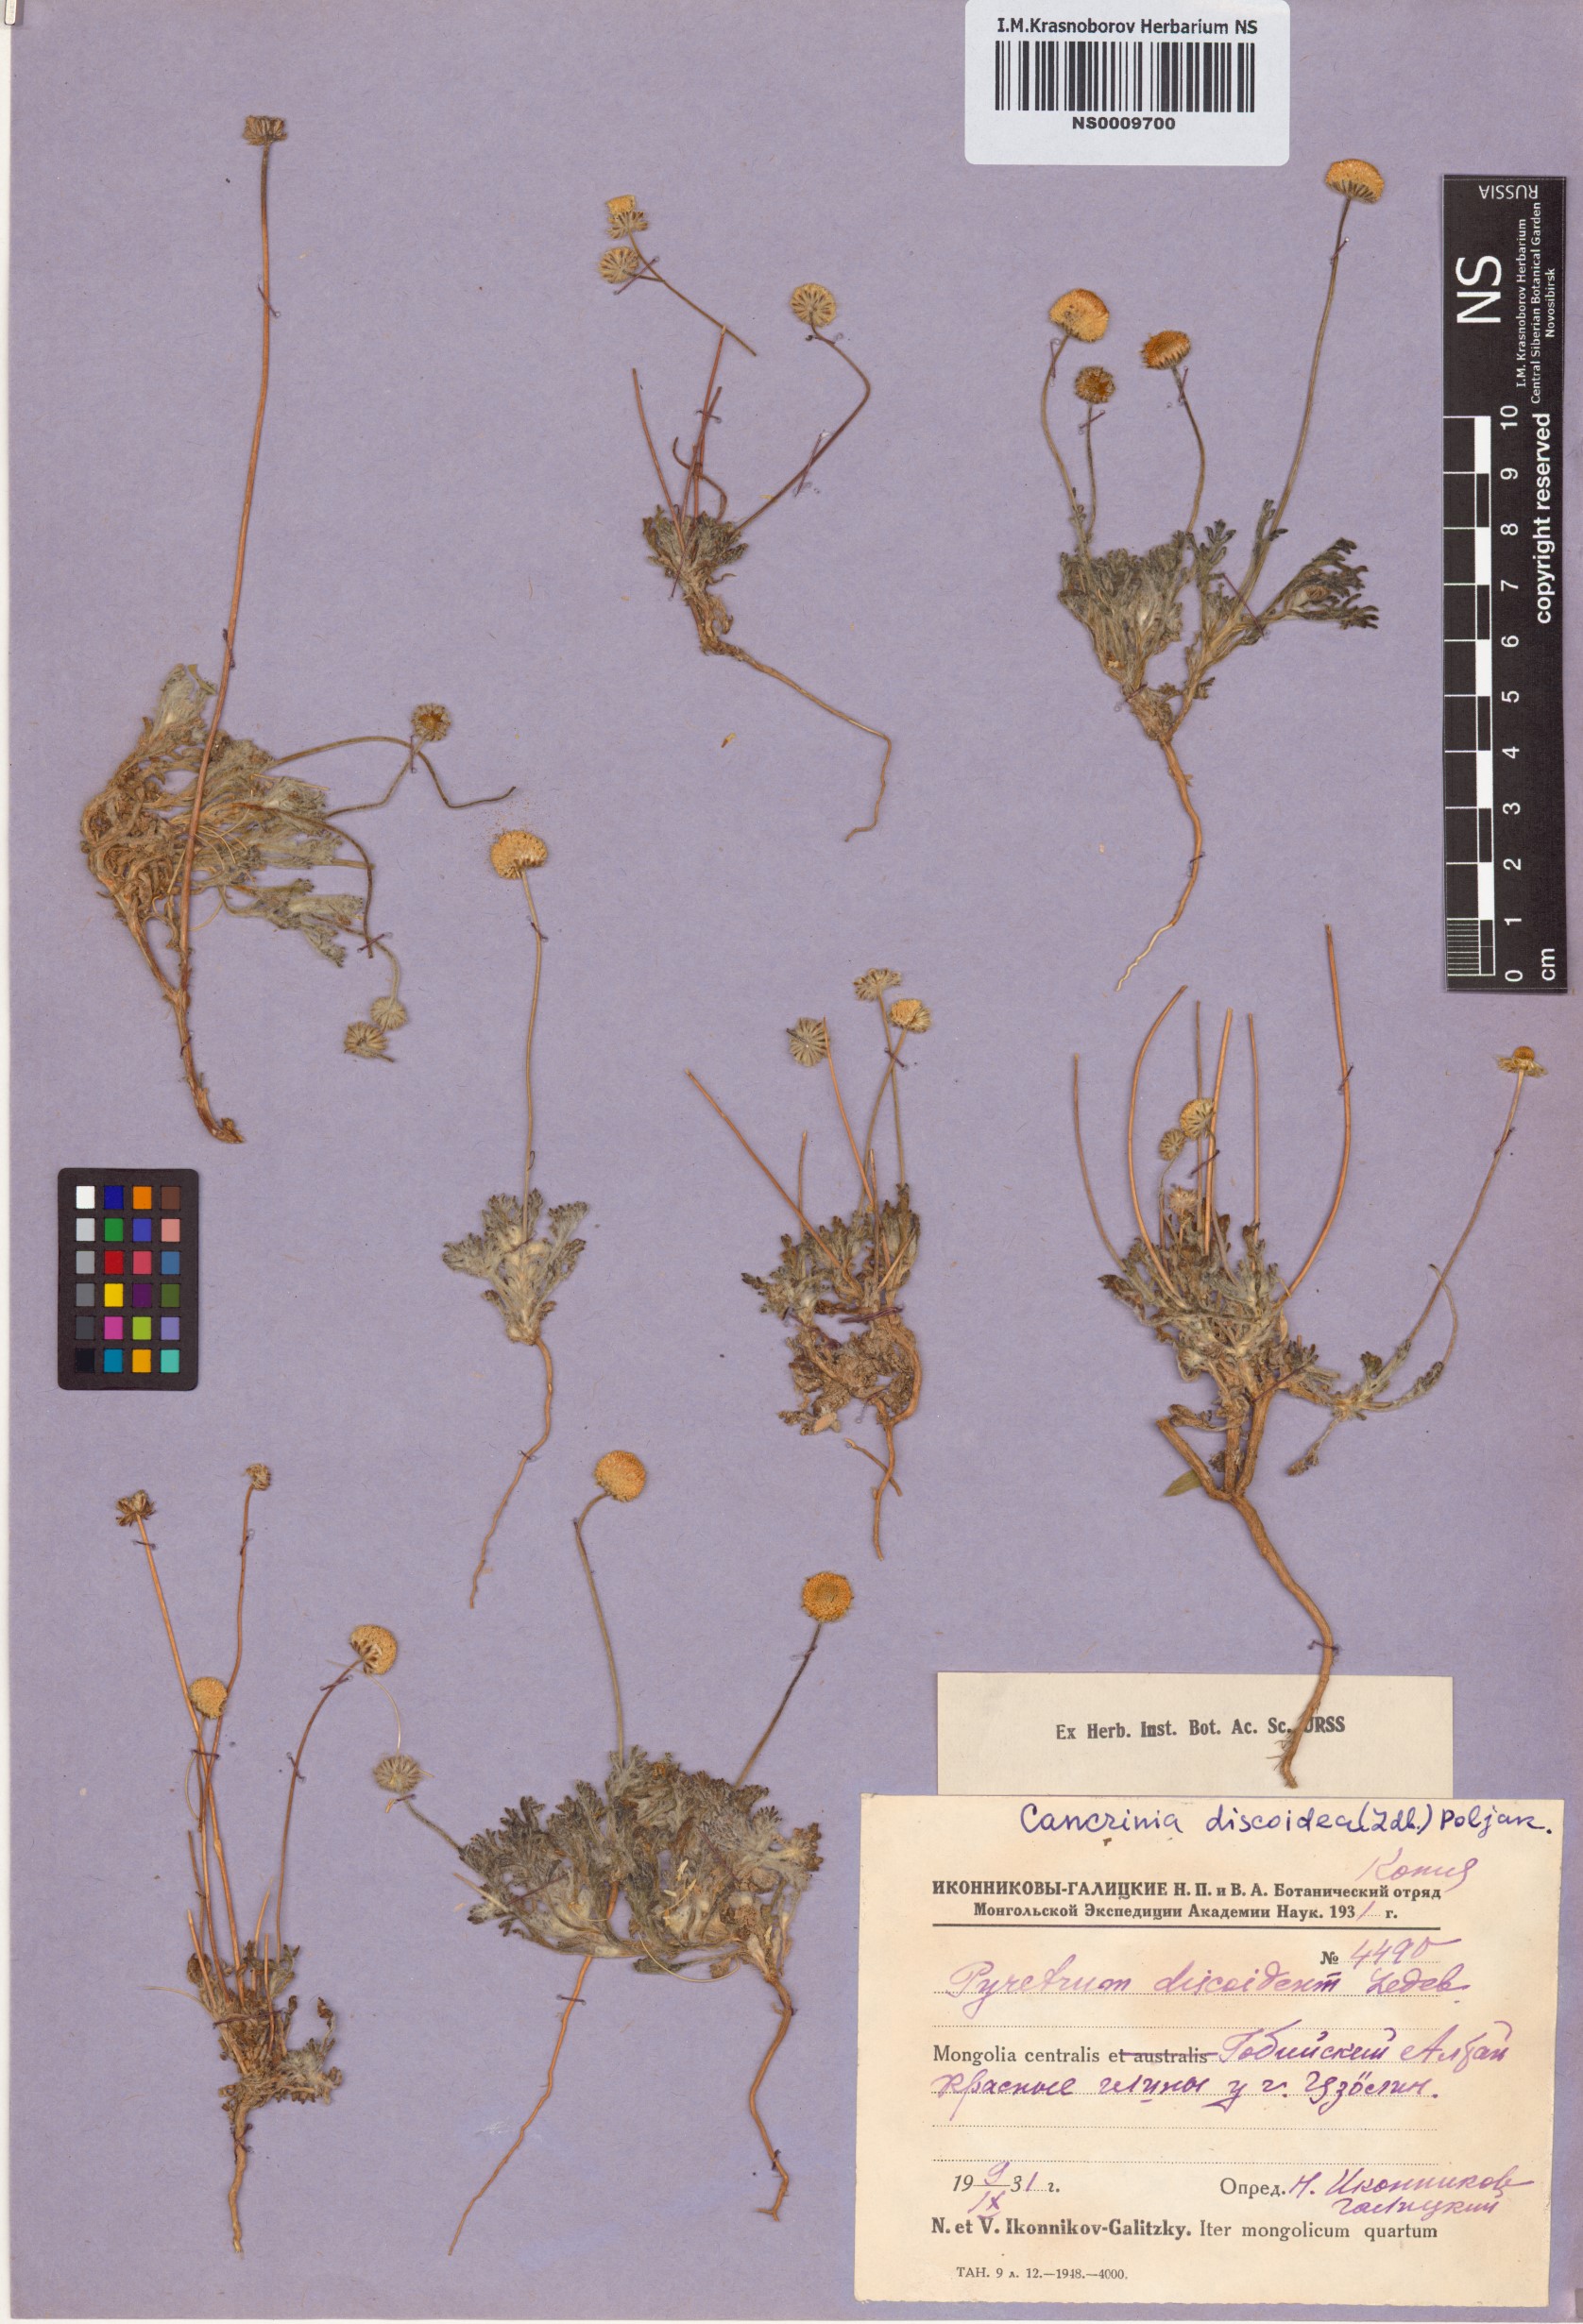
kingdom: Plantae
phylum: Tracheophyta
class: Magnoliopsida
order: Asterales
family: Asteraceae
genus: Cancrinia
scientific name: Cancrinia discoidea
